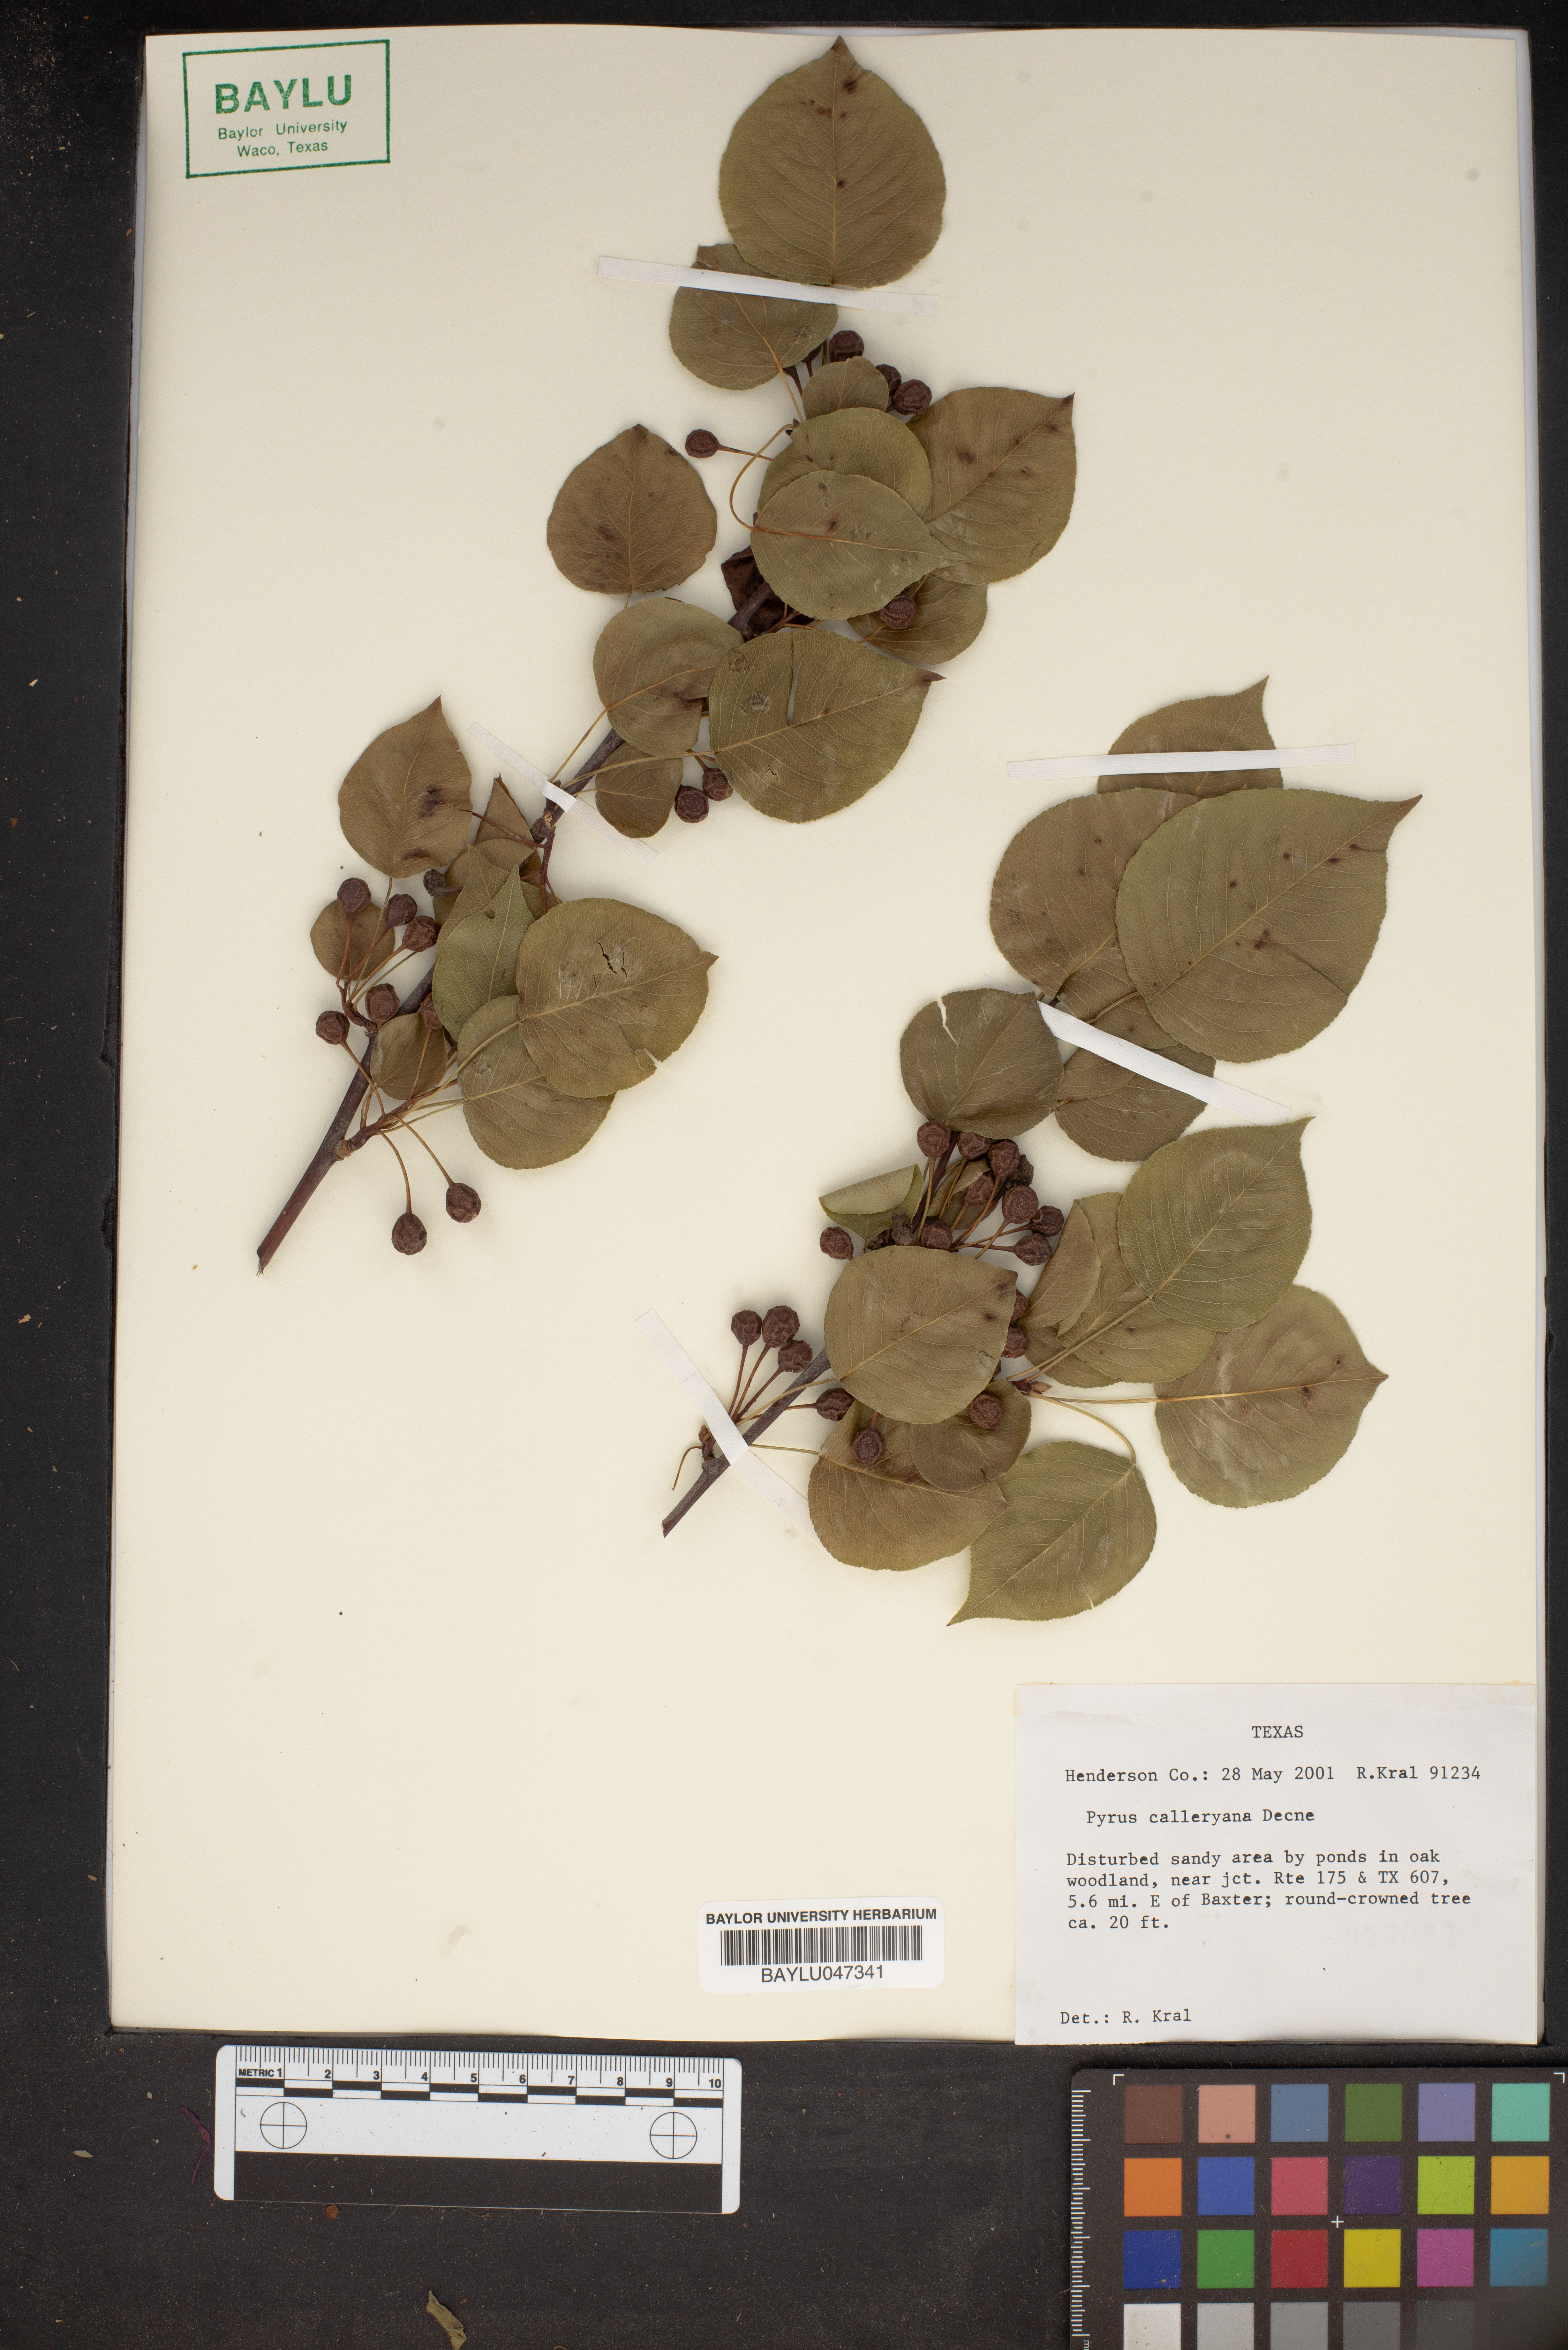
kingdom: Plantae
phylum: Tracheophyta
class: Magnoliopsida
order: Rosales
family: Rosaceae
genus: Pyrus
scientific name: Pyrus calleryana
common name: Callery pear
